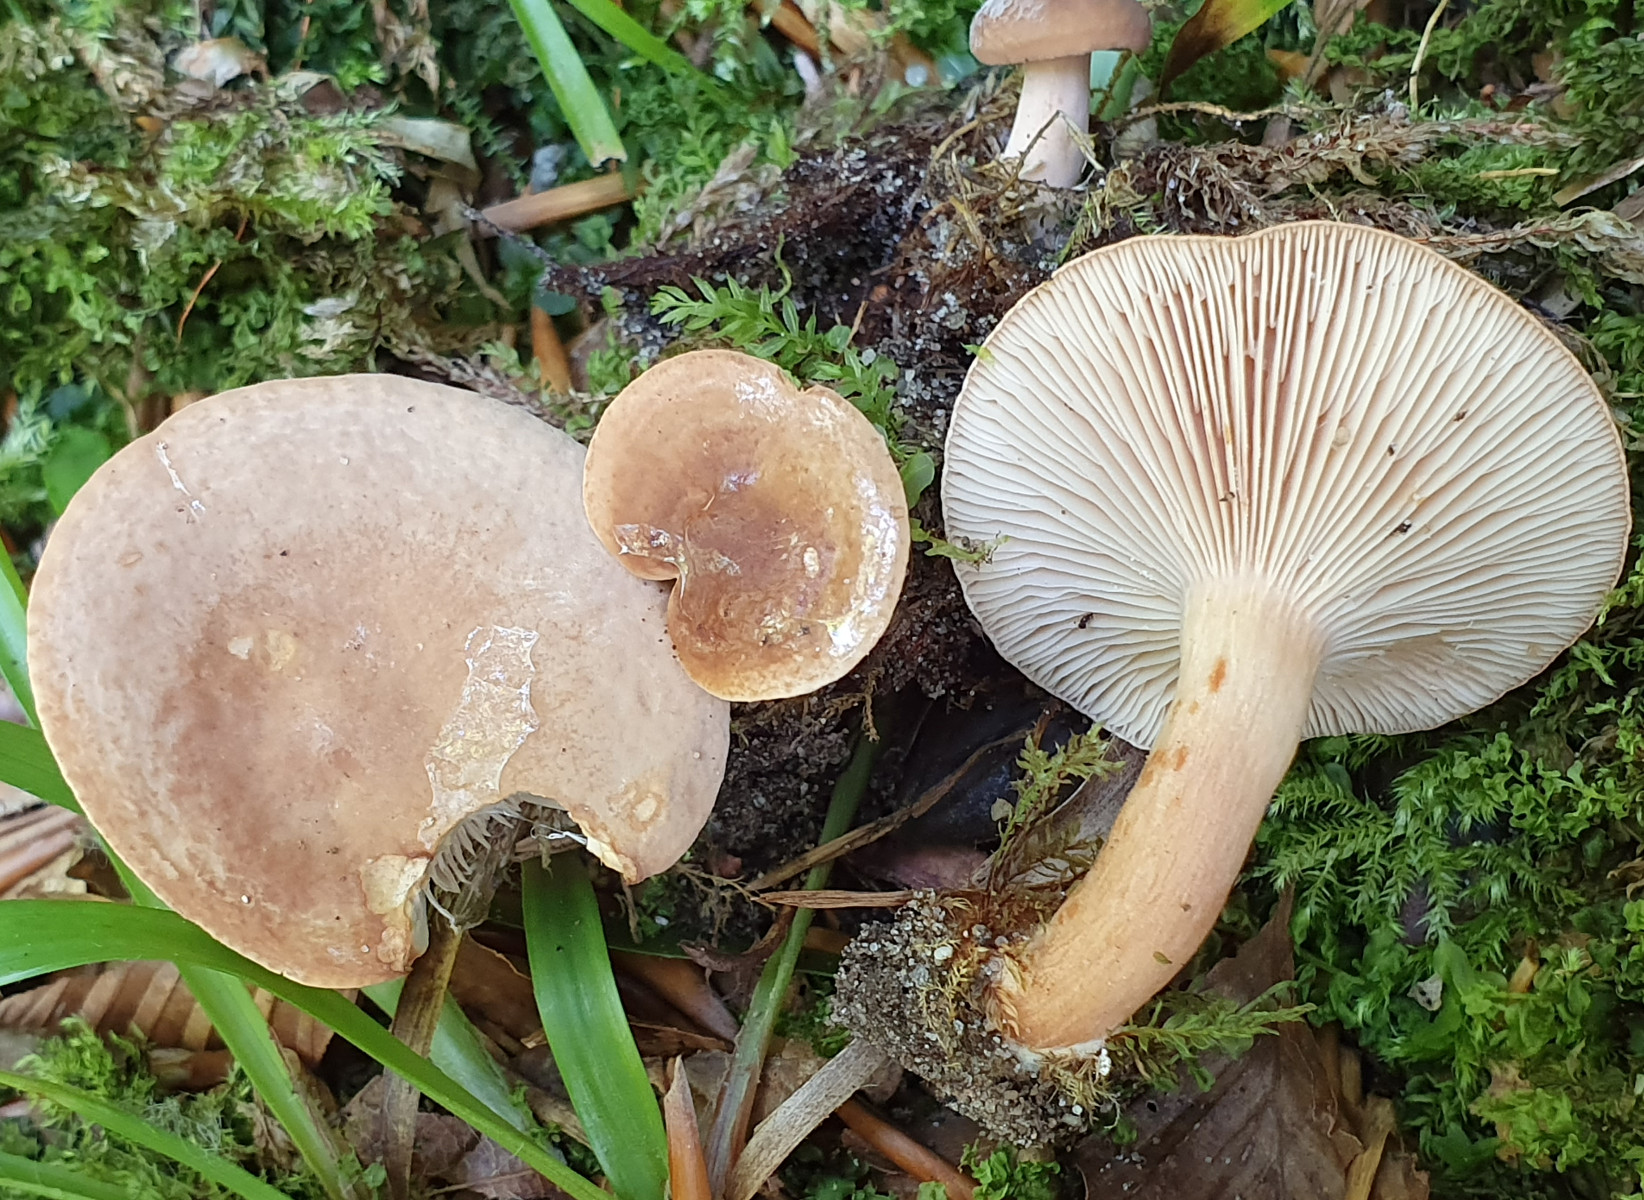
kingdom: Fungi
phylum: Basidiomycota
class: Agaricomycetes
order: Russulales
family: Russulaceae
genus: Lactarius
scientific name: Lactarius subdulcis
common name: sødlig mælkehat
